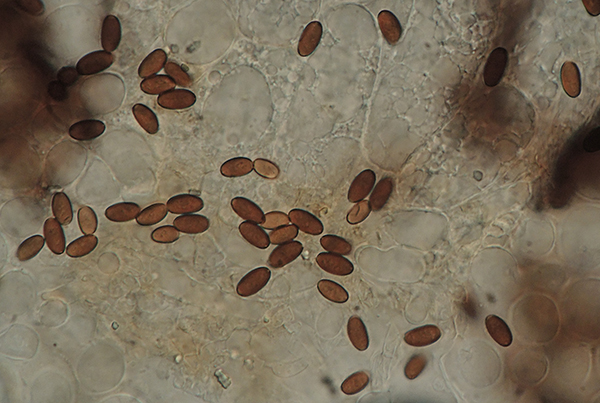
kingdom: Fungi
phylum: Basidiomycota
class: Agaricomycetes
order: Agaricales
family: Psathyrellaceae
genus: Tulosesus
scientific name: Tulosesus pellucidus
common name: skær blækhat
